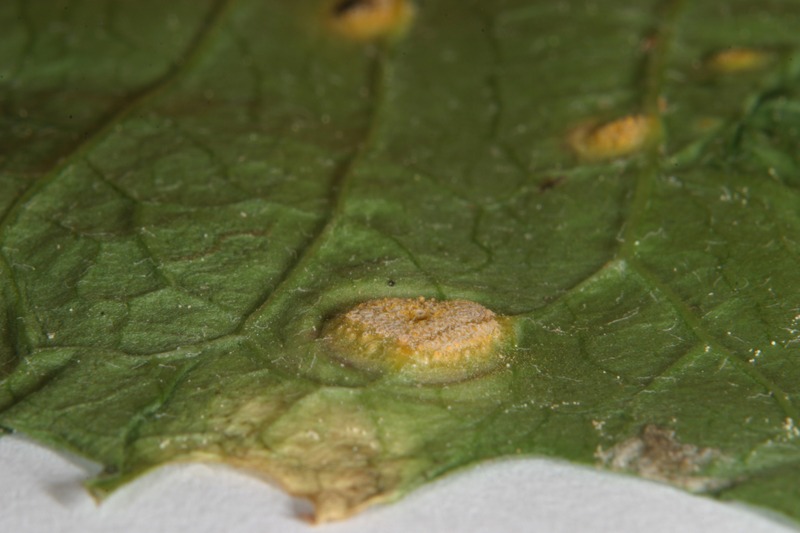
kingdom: Fungi
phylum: Basidiomycota
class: Pucciniomycetes
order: Pucciniales
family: Pucciniaceae
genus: Puccinia
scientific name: Puccinia dioicae
